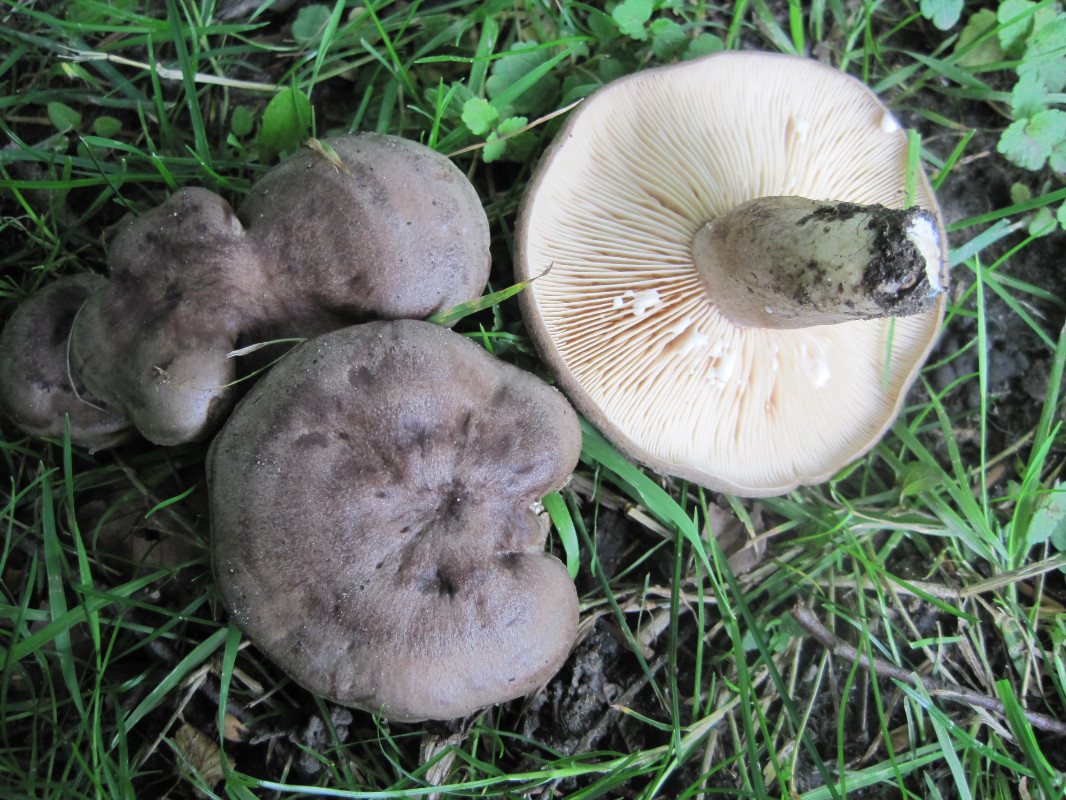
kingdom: Fungi
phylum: Basidiomycota
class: Agaricomycetes
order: Russulales
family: Russulaceae
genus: Lactarius
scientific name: Lactarius circellatus
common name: avnbøg-mælkehat
